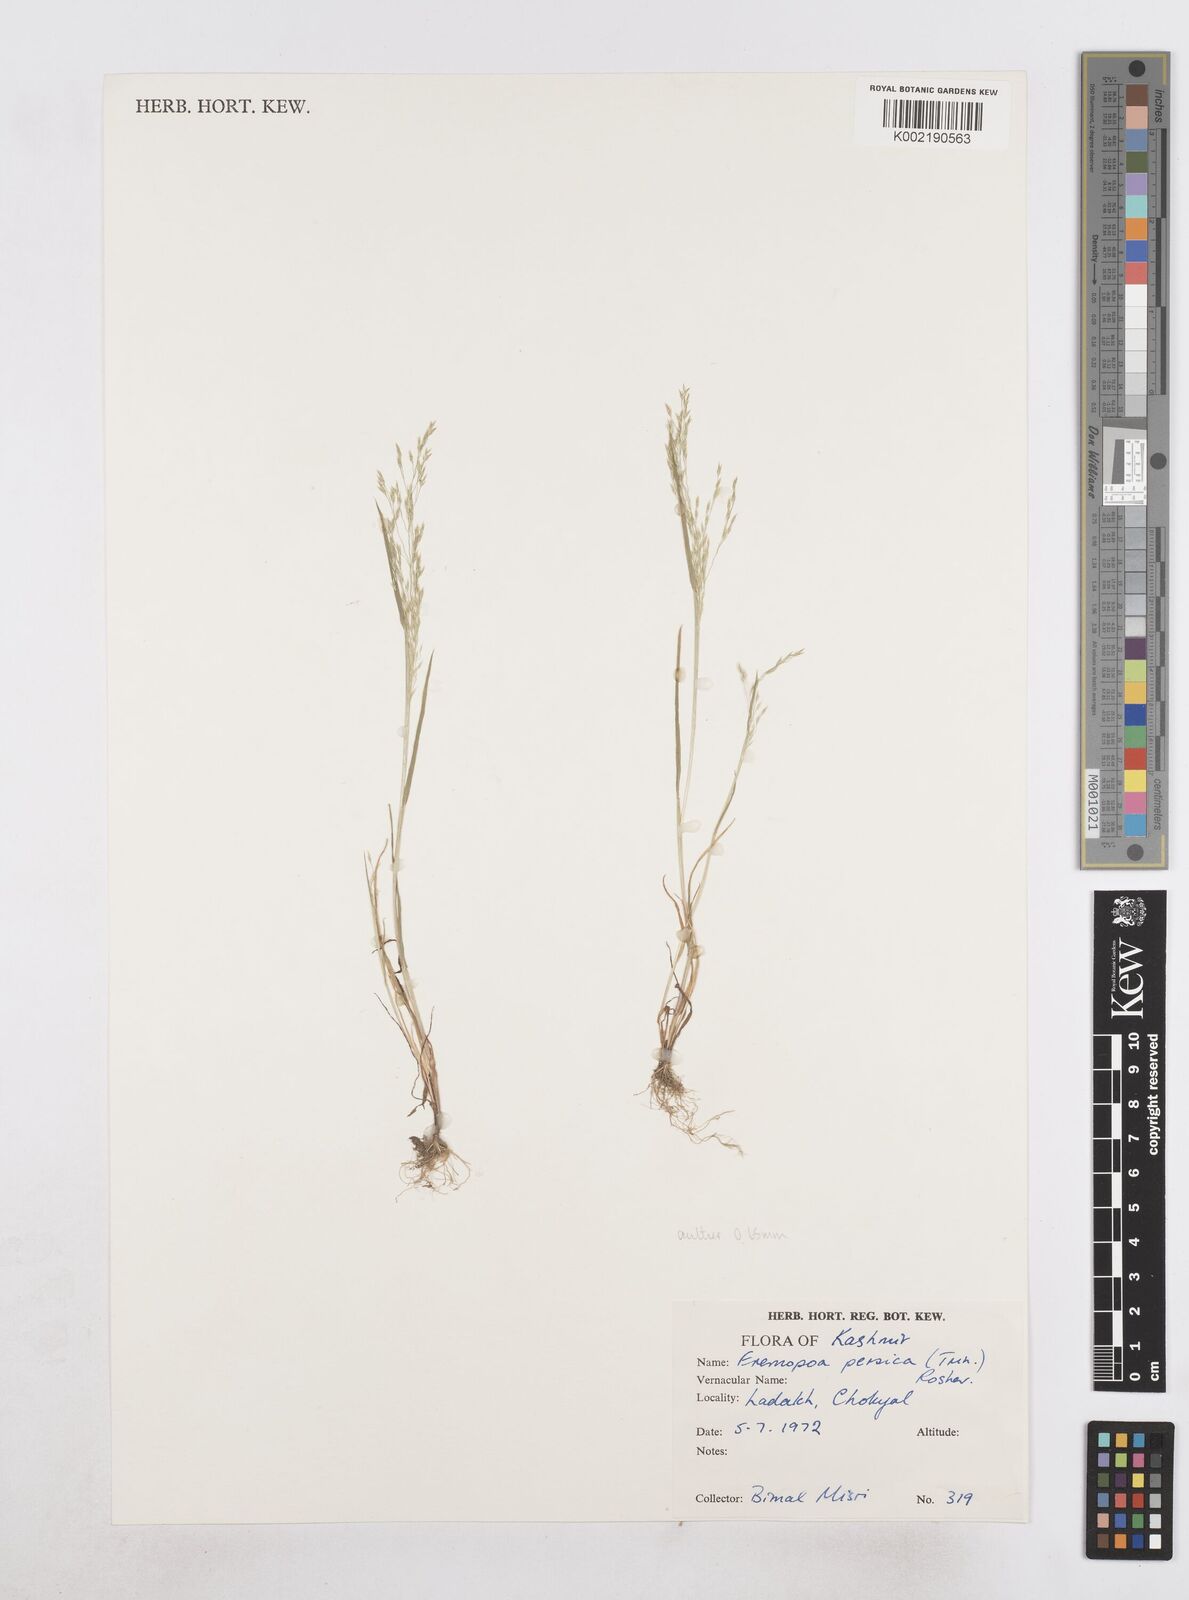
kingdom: Plantae
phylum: Tracheophyta
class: Liliopsida
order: Poales
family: Poaceae
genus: Poa
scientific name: Poa diaphora
